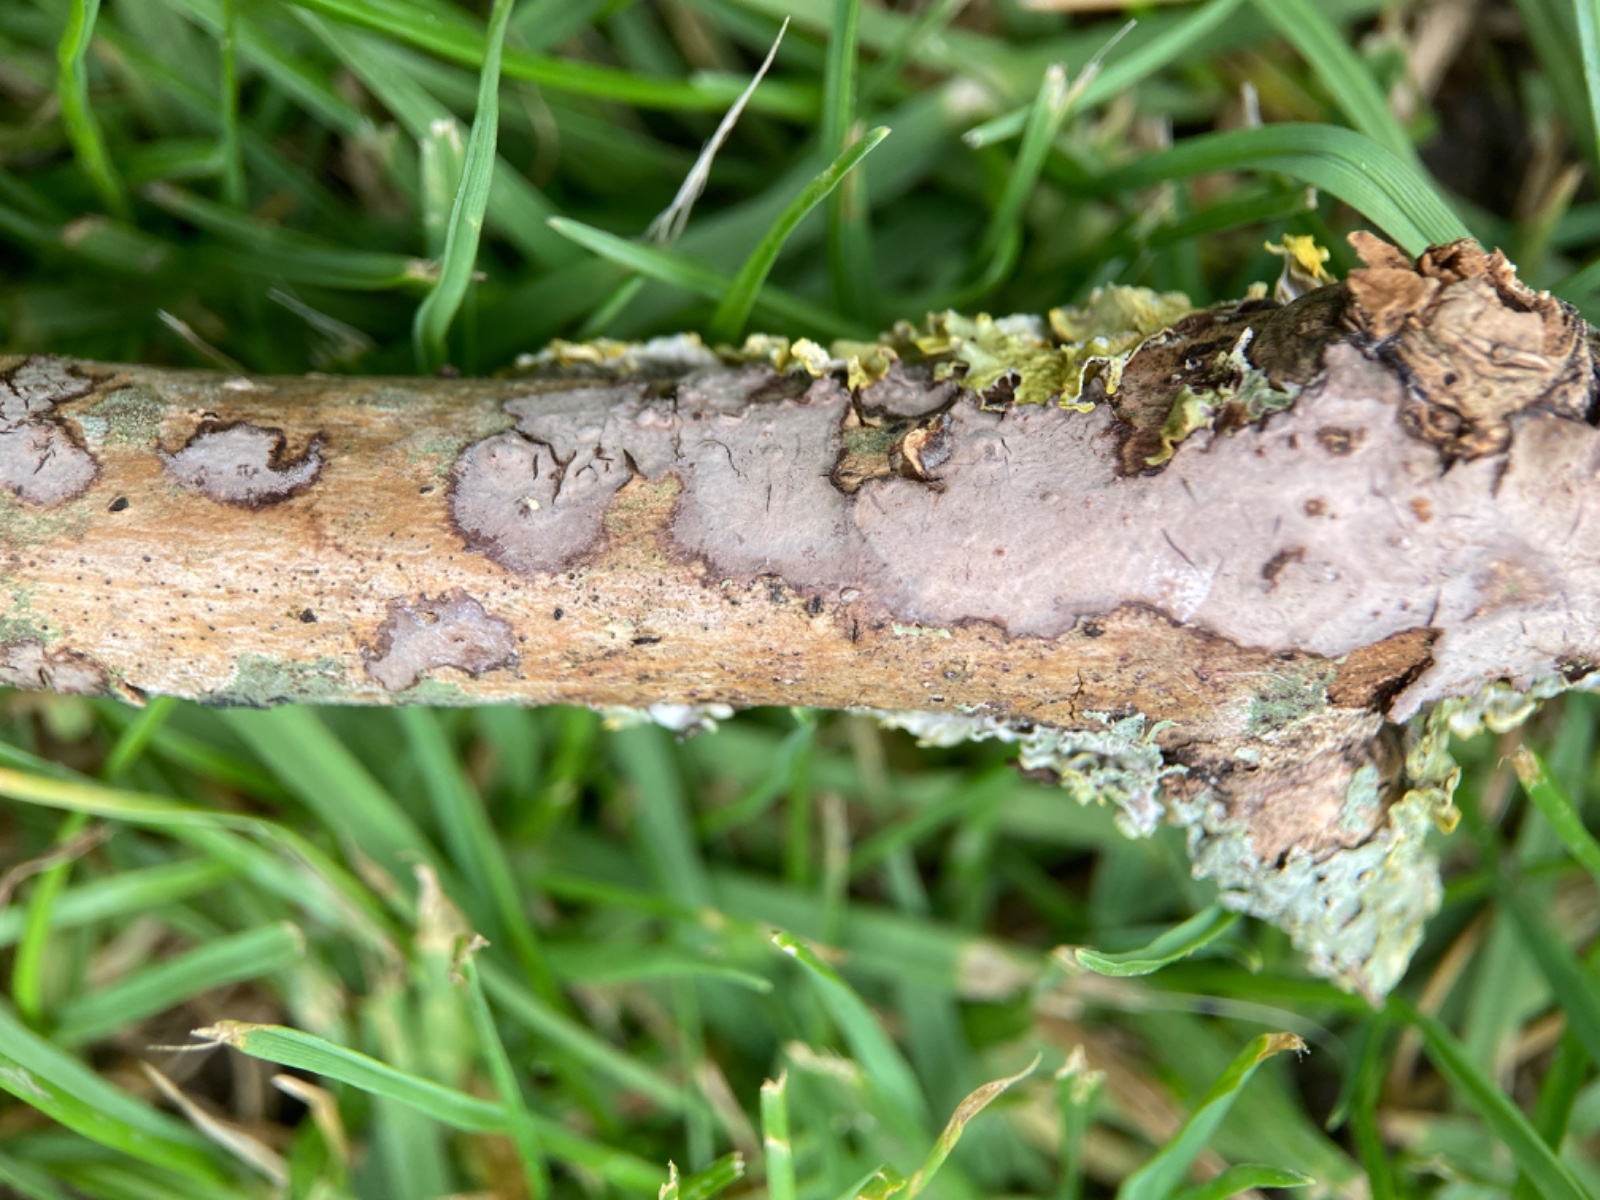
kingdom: Fungi
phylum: Basidiomycota
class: Agaricomycetes
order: Russulales
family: Peniophoraceae
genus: Peniophora
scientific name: Peniophora limitata
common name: mørkrandet voksskind
